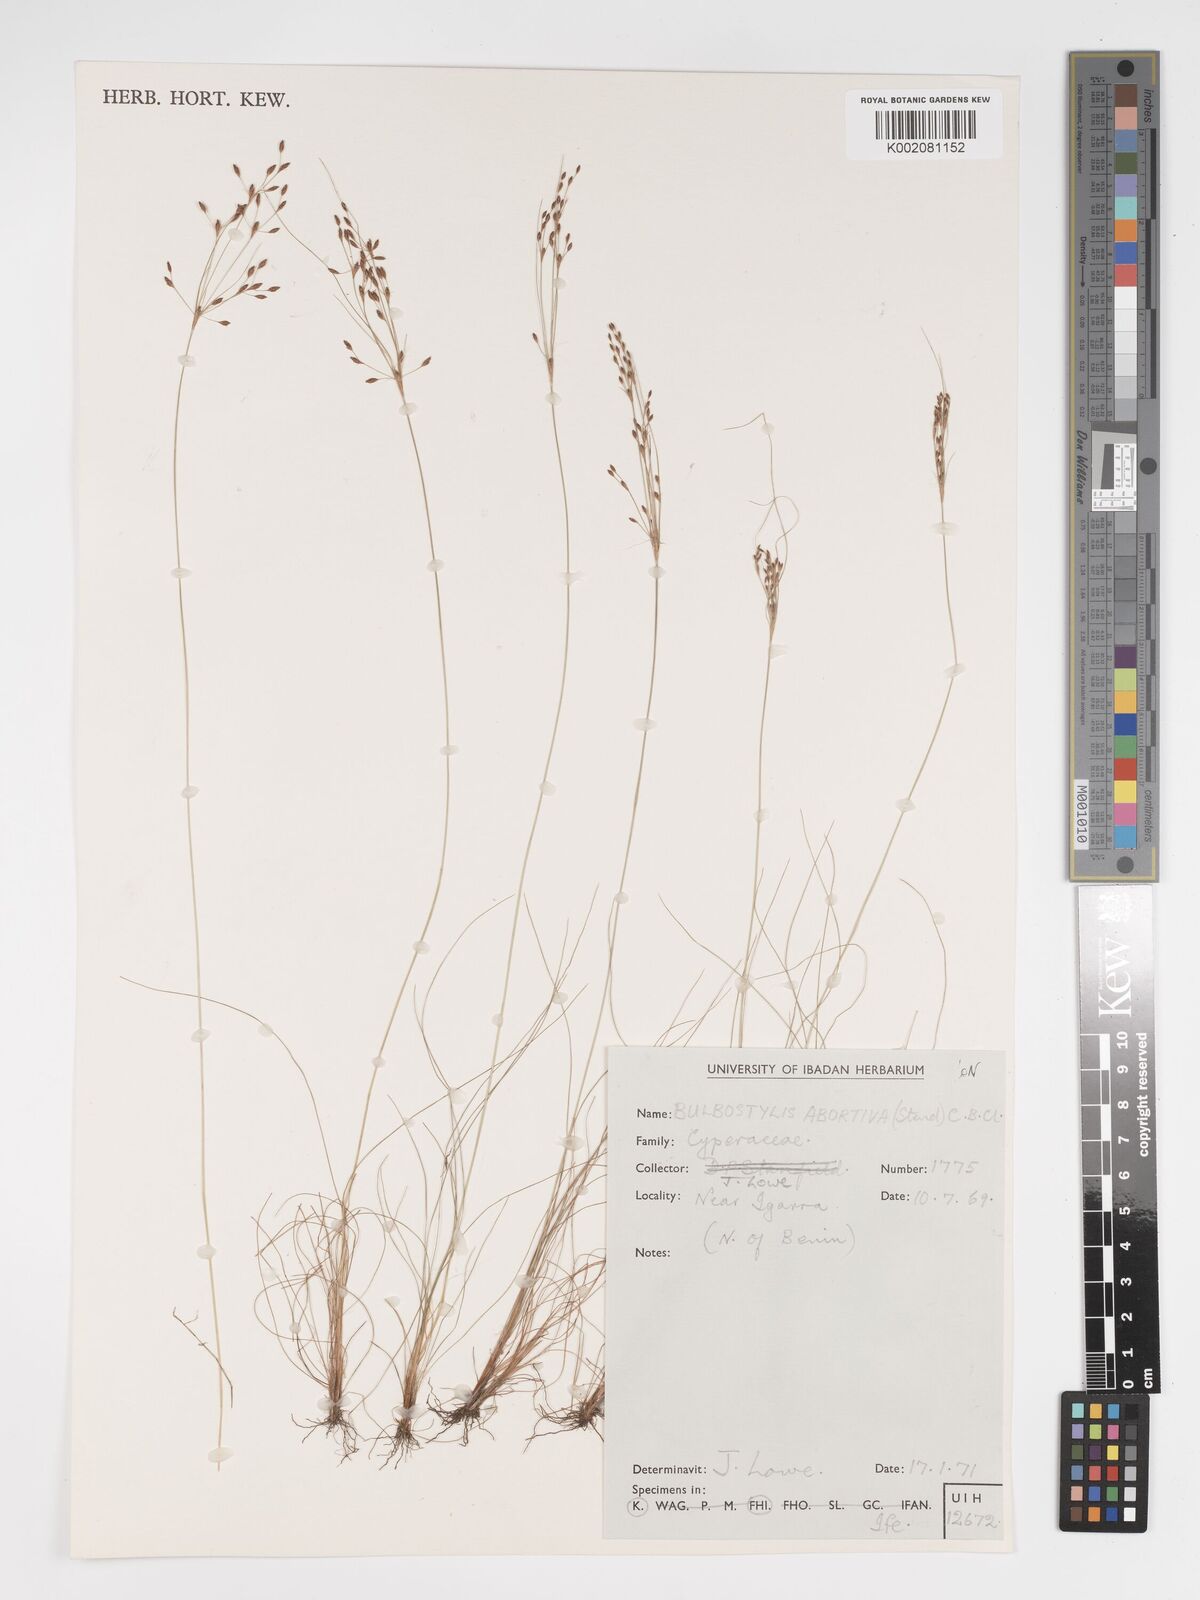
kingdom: Plantae
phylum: Tracheophyta
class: Liliopsida
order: Poales
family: Cyperaceae
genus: Bulbostylis
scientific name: Bulbostylis abortiva
